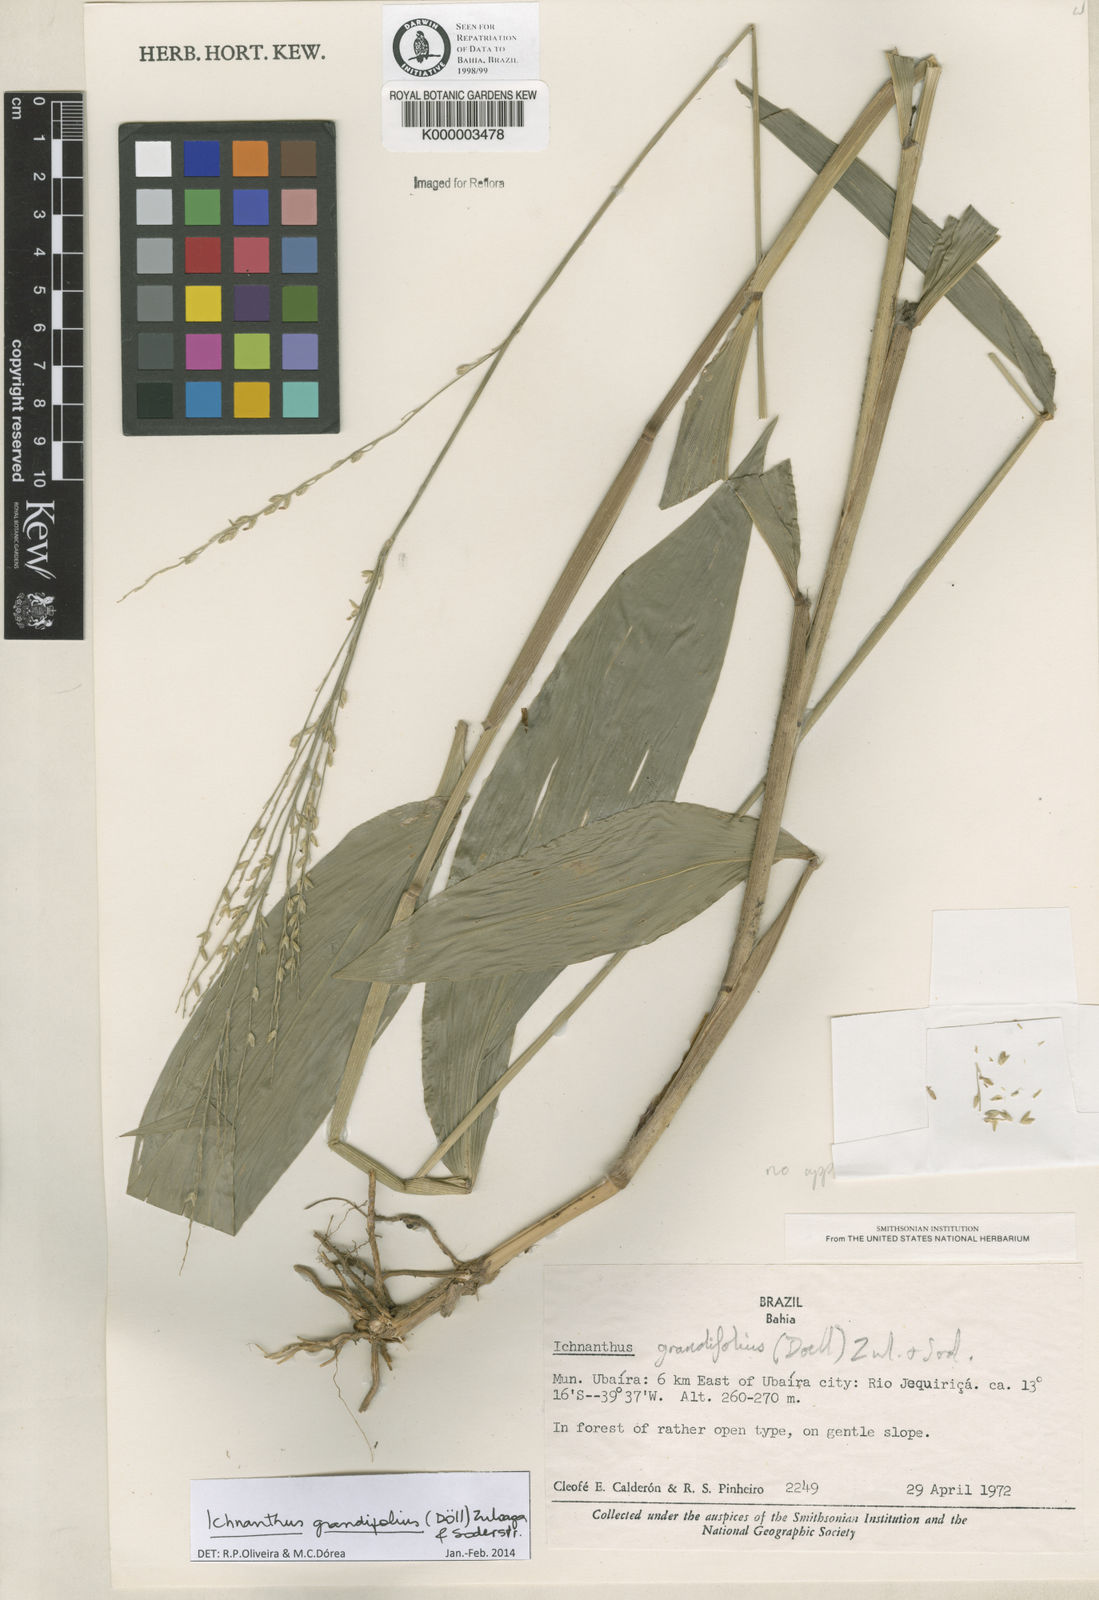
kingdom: Plantae
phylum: Tracheophyta
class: Liliopsida
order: Poales
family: Poaceae
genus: Oedochloa
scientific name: Oedochloa grandifolia
